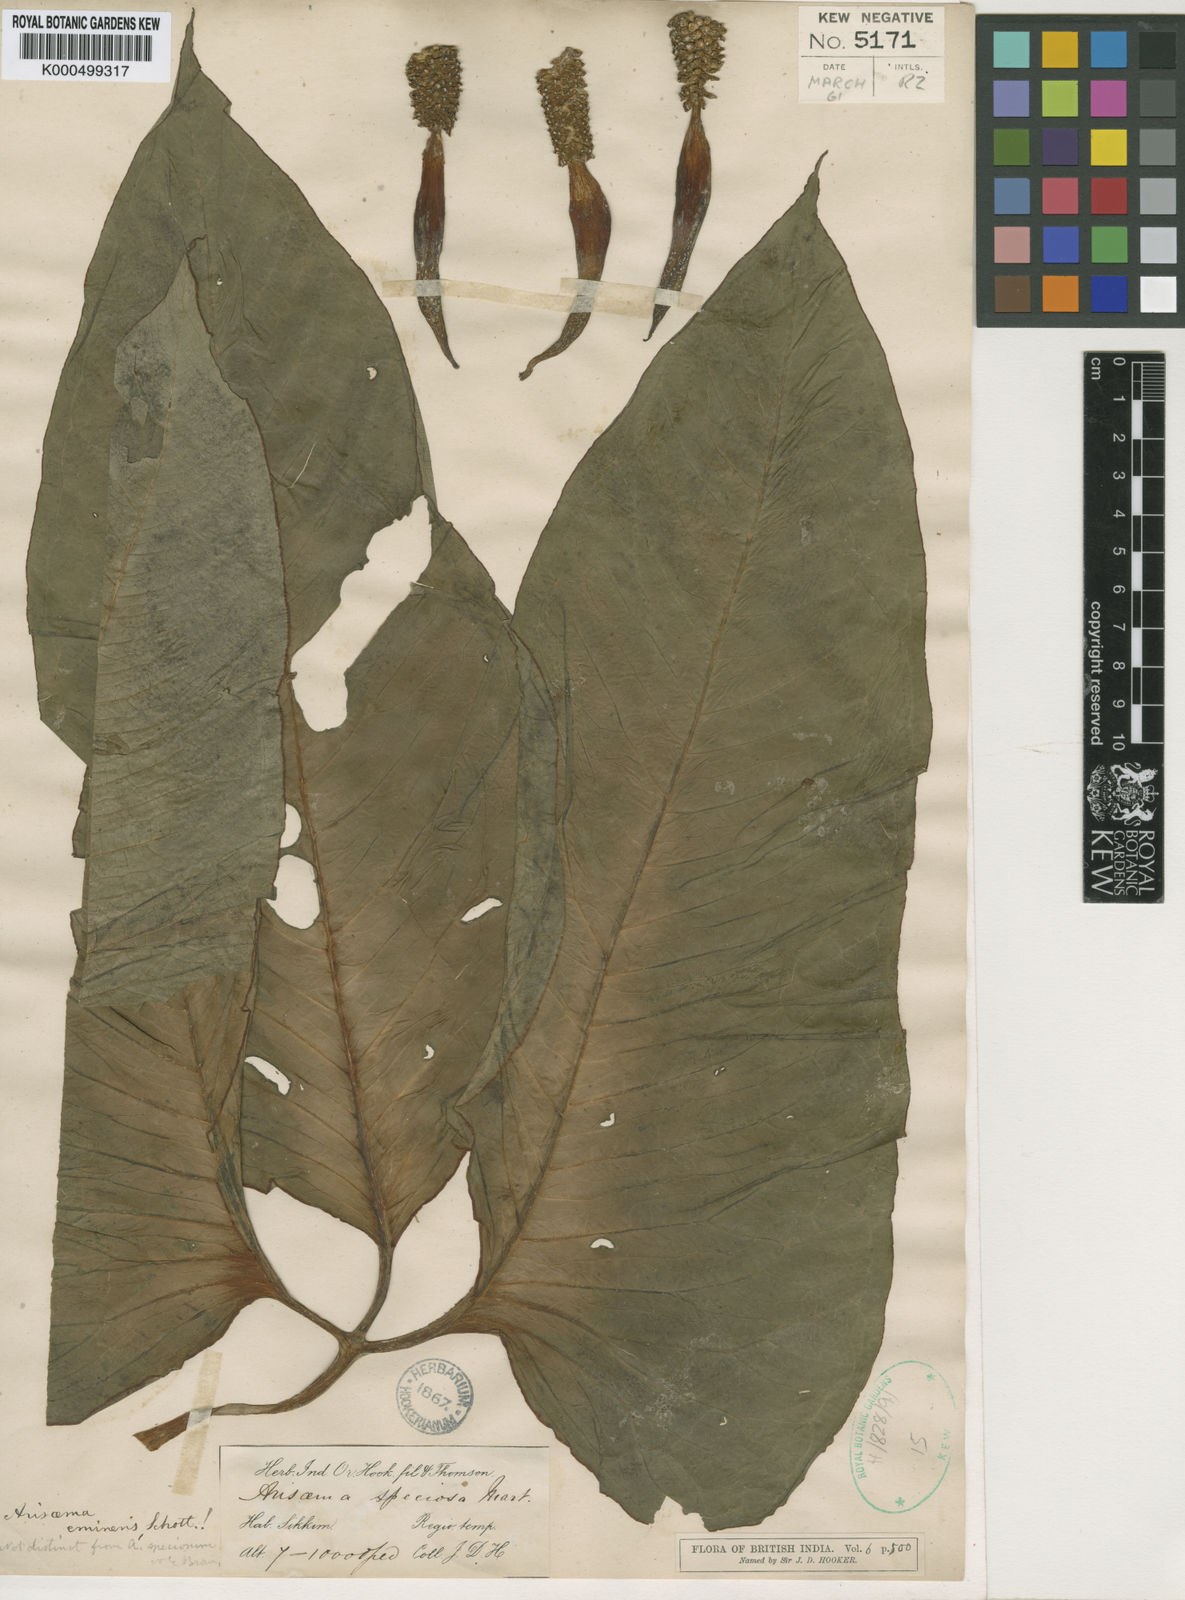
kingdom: Plantae
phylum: Tracheophyta
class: Liliopsida
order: Alismatales
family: Araceae
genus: Arisaema
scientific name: Arisaema speciosum
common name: Showy cobra-lily
